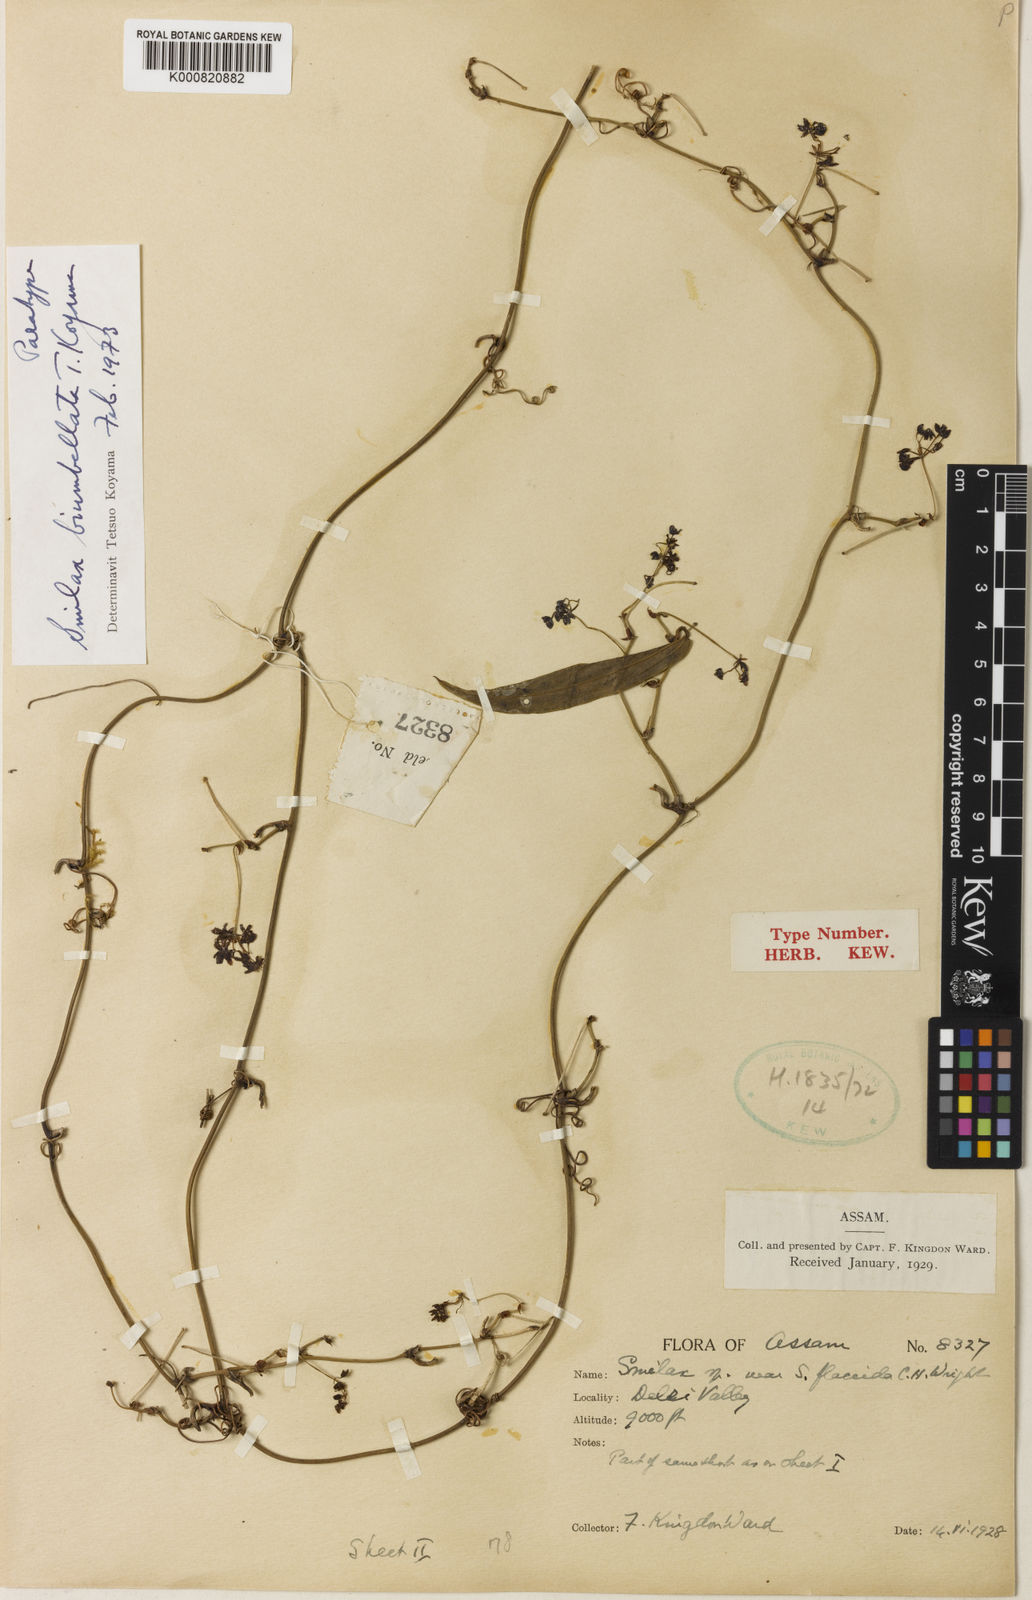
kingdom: Plantae
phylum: Tracheophyta
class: Liliopsida
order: Liliales
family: Smilacaceae
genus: Smilax
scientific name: Smilax biumbellata
